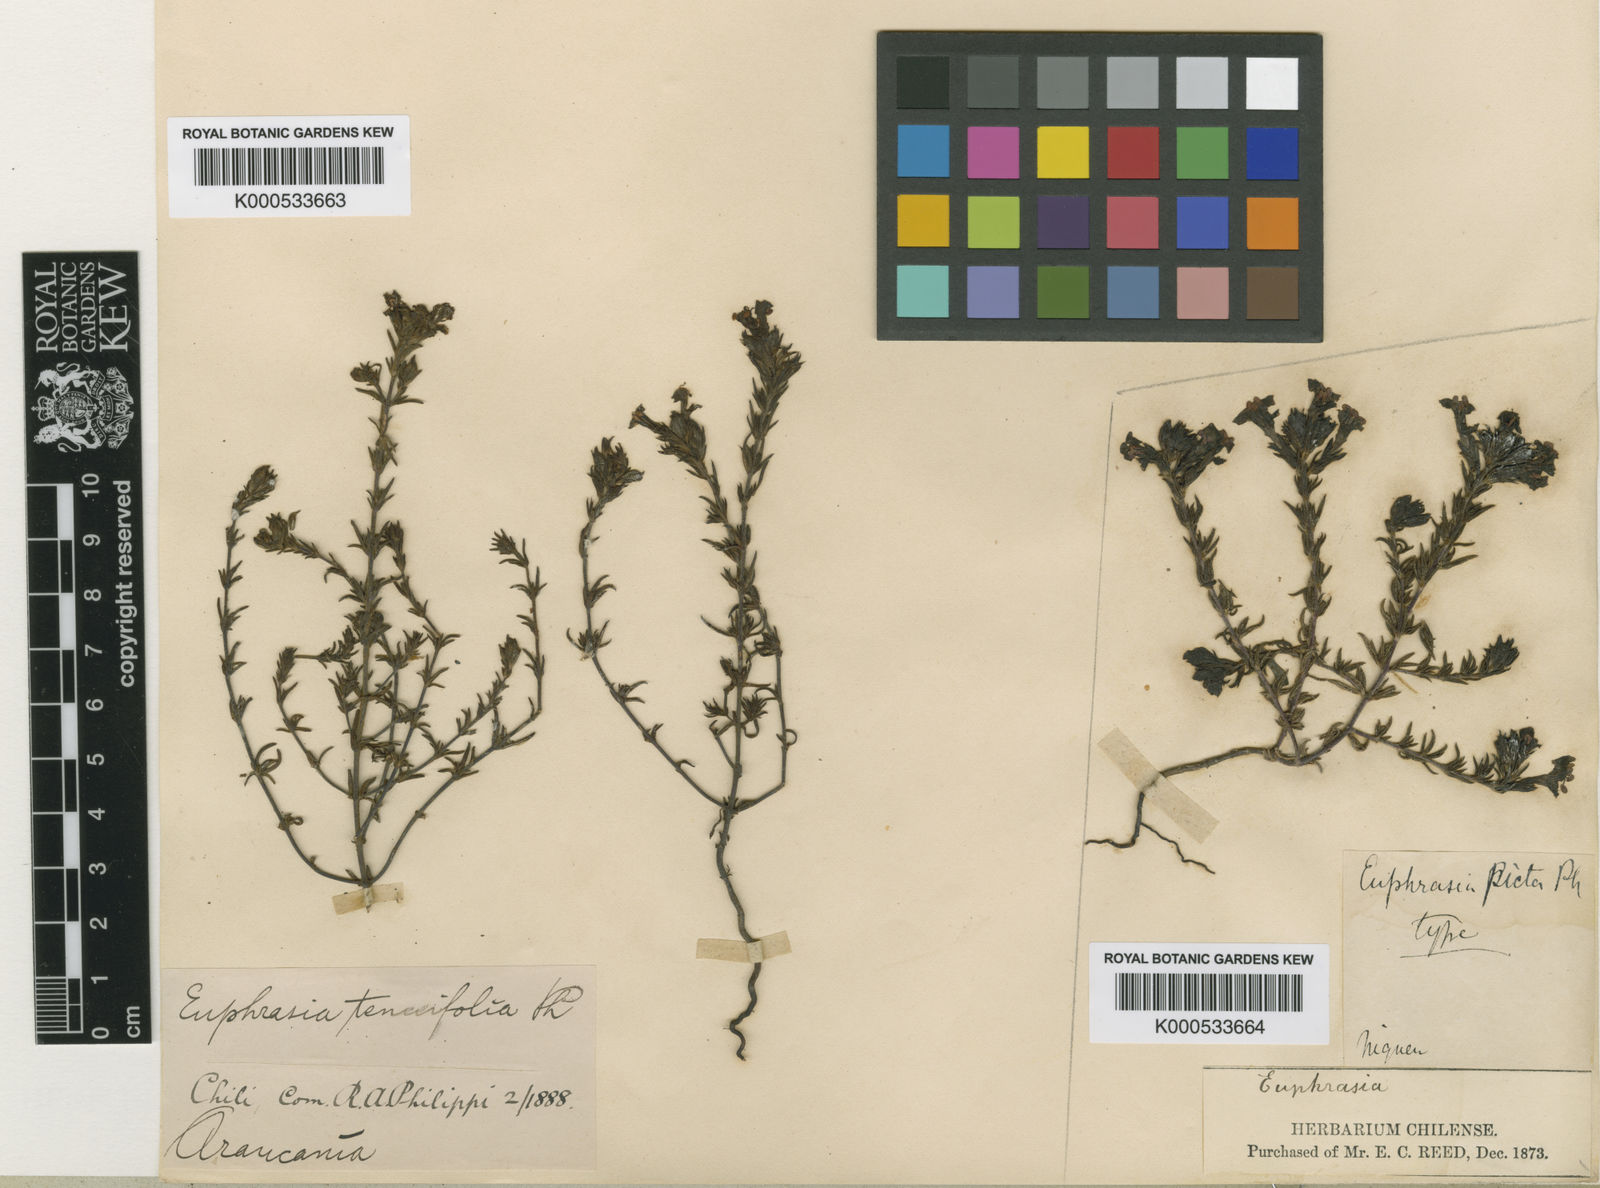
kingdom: Plantae
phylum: Tracheophyta
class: Magnoliopsida
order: Lamiales
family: Orobanchaceae
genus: Euphrasia
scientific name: Euphrasia philippii
